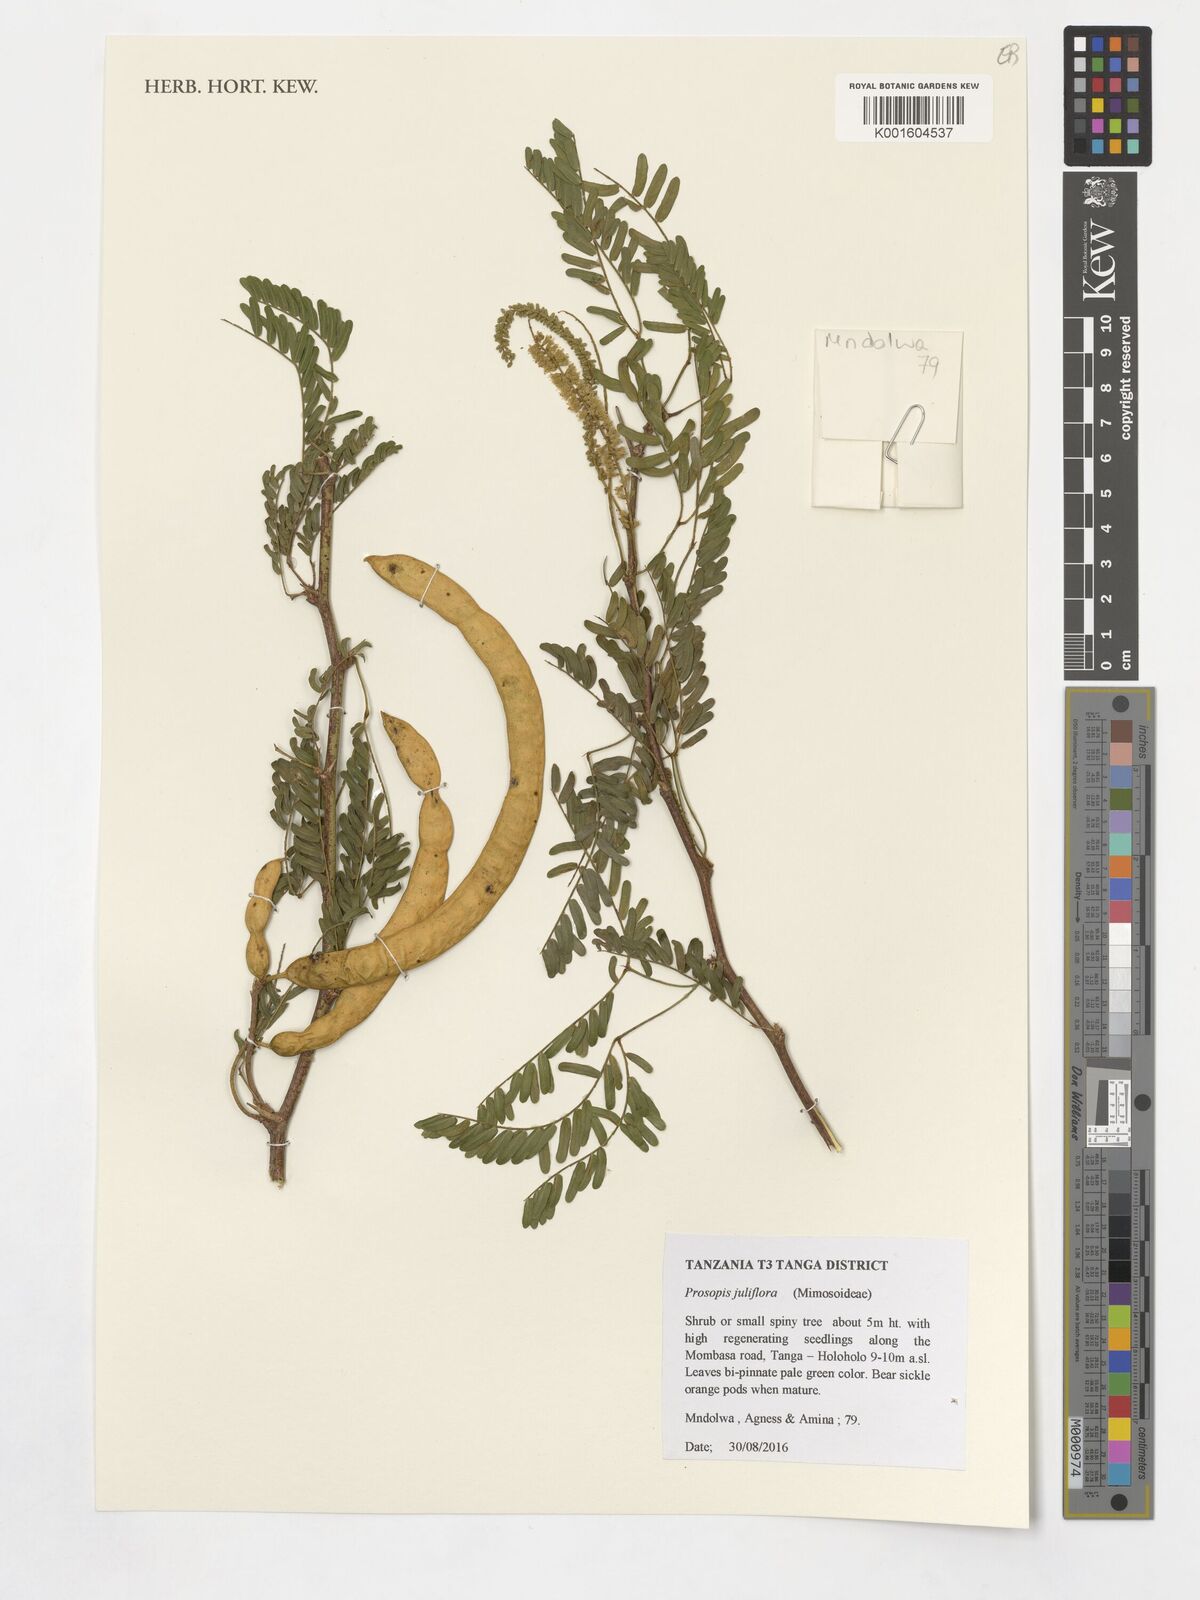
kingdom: Plantae
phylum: Tracheophyta
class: Magnoliopsida
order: Fabales
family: Fabaceae
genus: Prosopis
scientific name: Prosopis juliflora
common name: Mesquite
